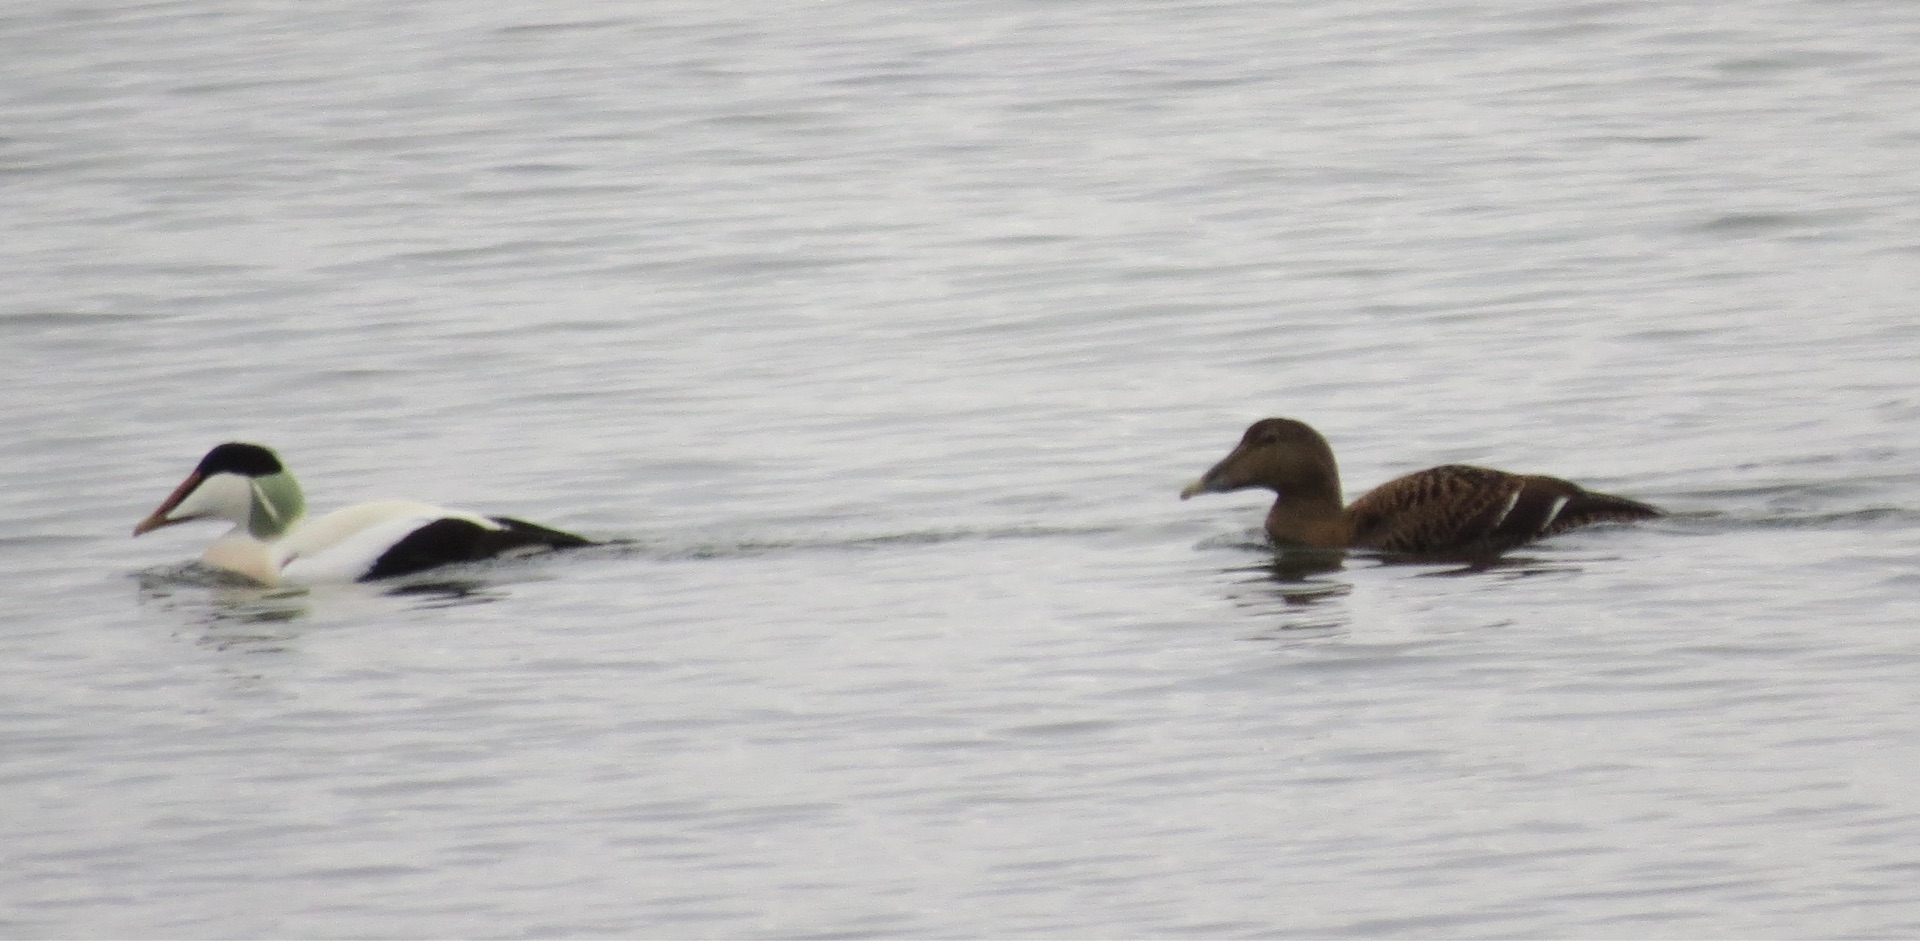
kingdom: Animalia
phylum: Chordata
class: Aves
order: Anseriformes
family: Anatidae
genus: Somateria
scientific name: Somateria mollissima
